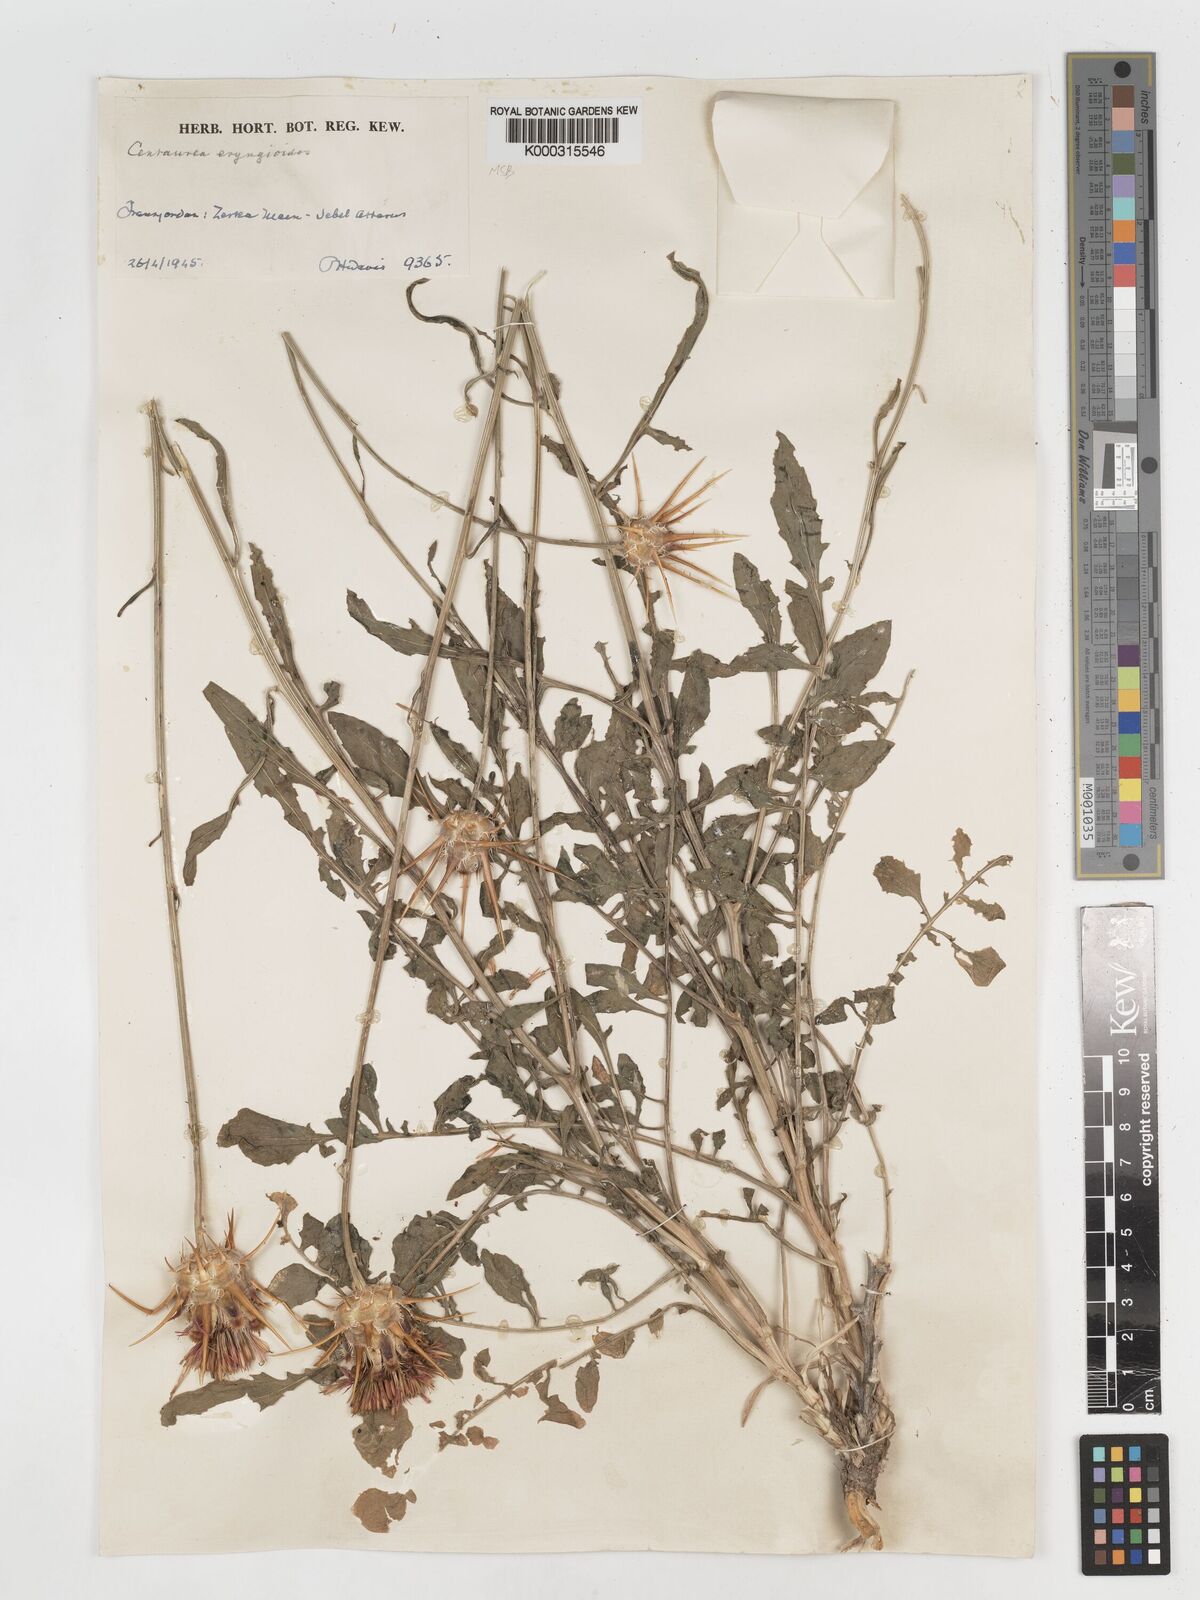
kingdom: Plantae
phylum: Tracheophyta
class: Magnoliopsida
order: Asterales
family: Asteraceae
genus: Centaurea
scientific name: Centaurea eryngioides
